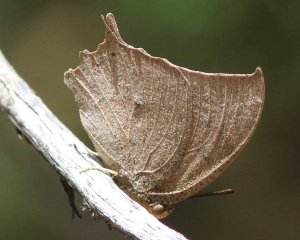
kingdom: Animalia
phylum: Arthropoda
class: Insecta
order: Lepidoptera
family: Nymphalidae
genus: Anaea
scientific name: Anaea aidea
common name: Tropical Leafwing
